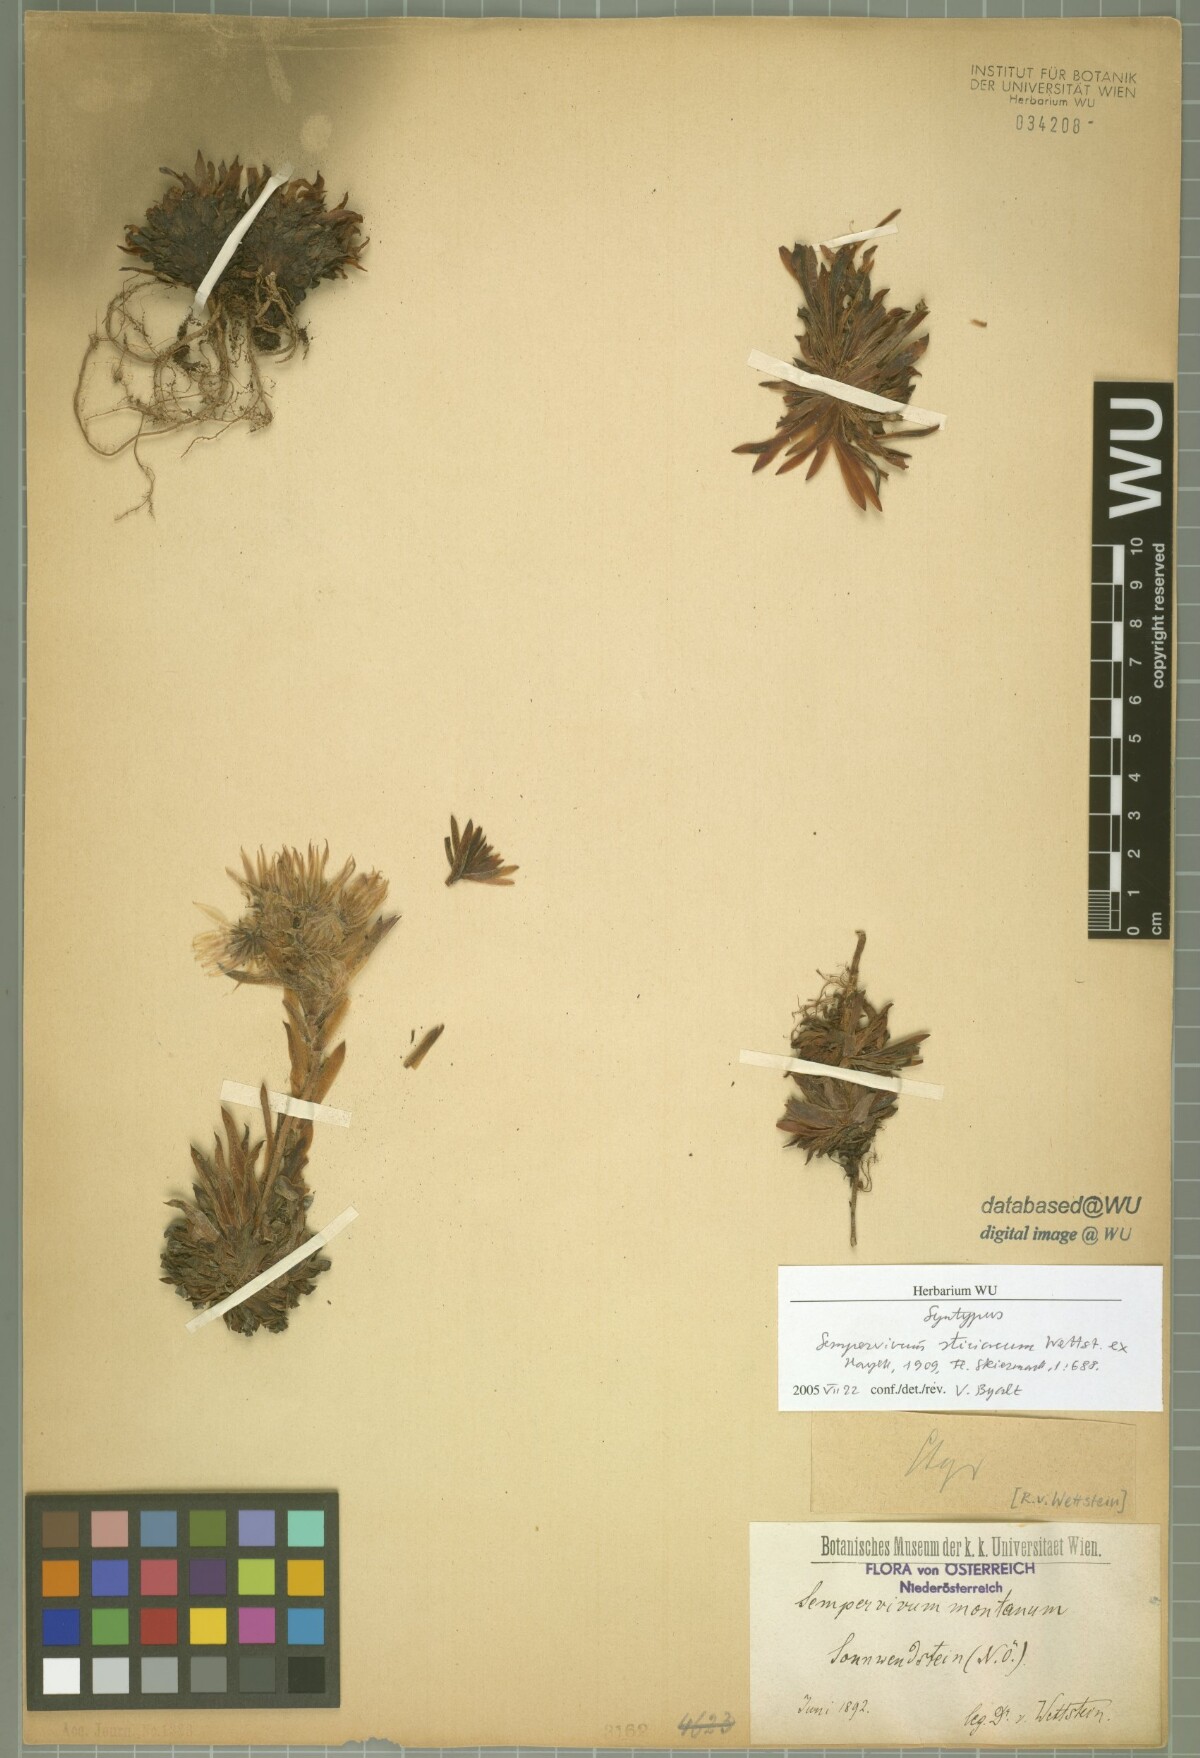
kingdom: Plantae
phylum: Tracheophyta
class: Magnoliopsida
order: Saxifragales
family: Crassulaceae
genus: Sempervivum
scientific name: Sempervivum montanum
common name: Mountain house-leek
